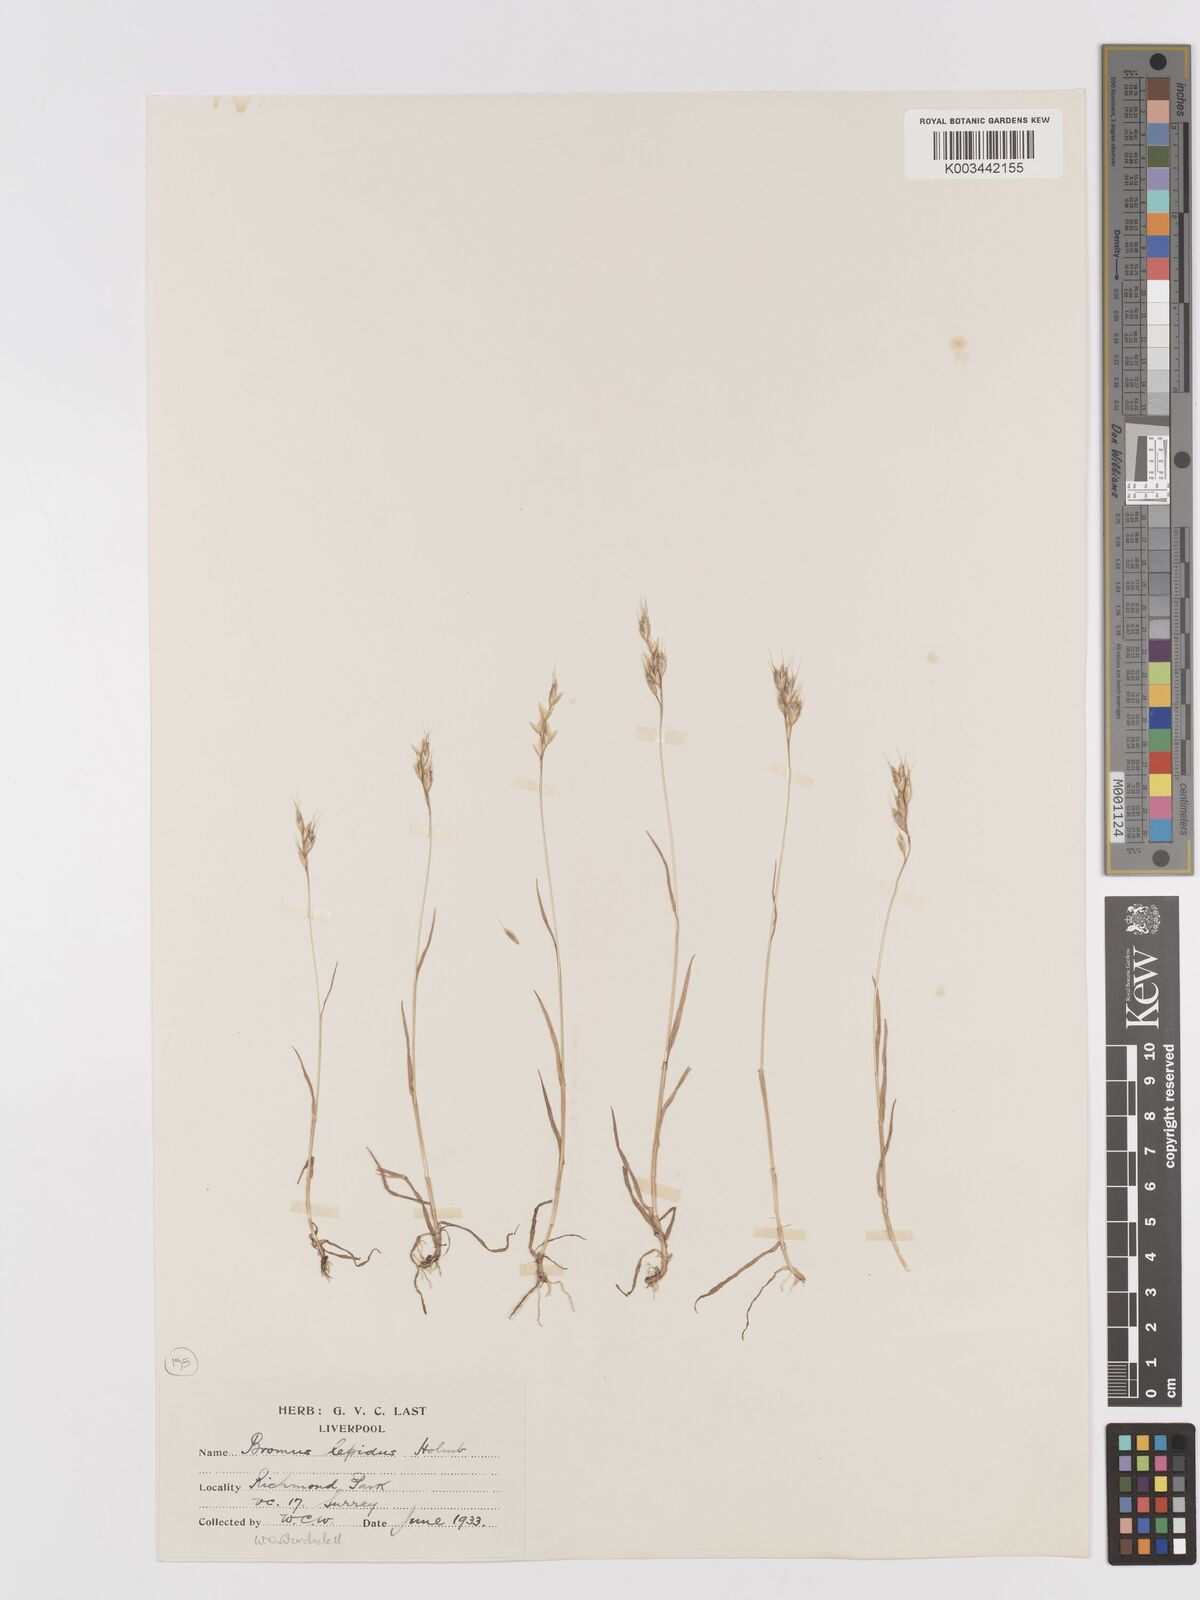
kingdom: Plantae
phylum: Tracheophyta
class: Liliopsida
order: Poales
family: Poaceae
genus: Bromus
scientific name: Bromus lepidus
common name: Slender soft-brome
